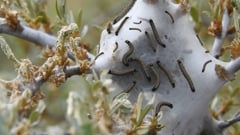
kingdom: Animalia
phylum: Arthropoda
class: Insecta
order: Lepidoptera
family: Yponomeutidae
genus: Yponomeuta
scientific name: Yponomeuta padella
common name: Orchard ermine
